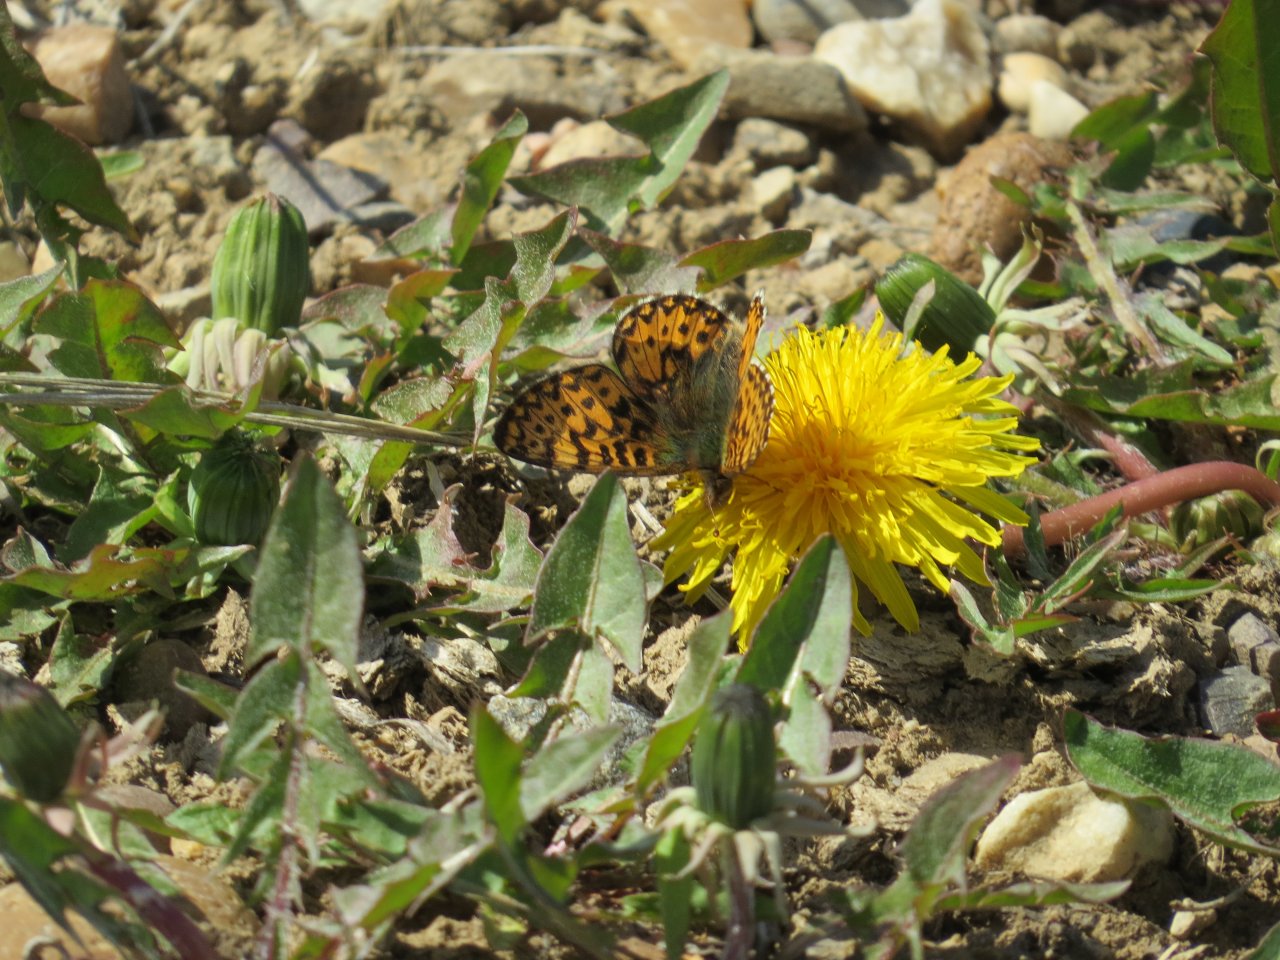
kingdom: Animalia
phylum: Arthropoda
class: Insecta
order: Lepidoptera
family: Nymphalidae
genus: Boloria
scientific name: Boloria freija
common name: Freija Fritillary
